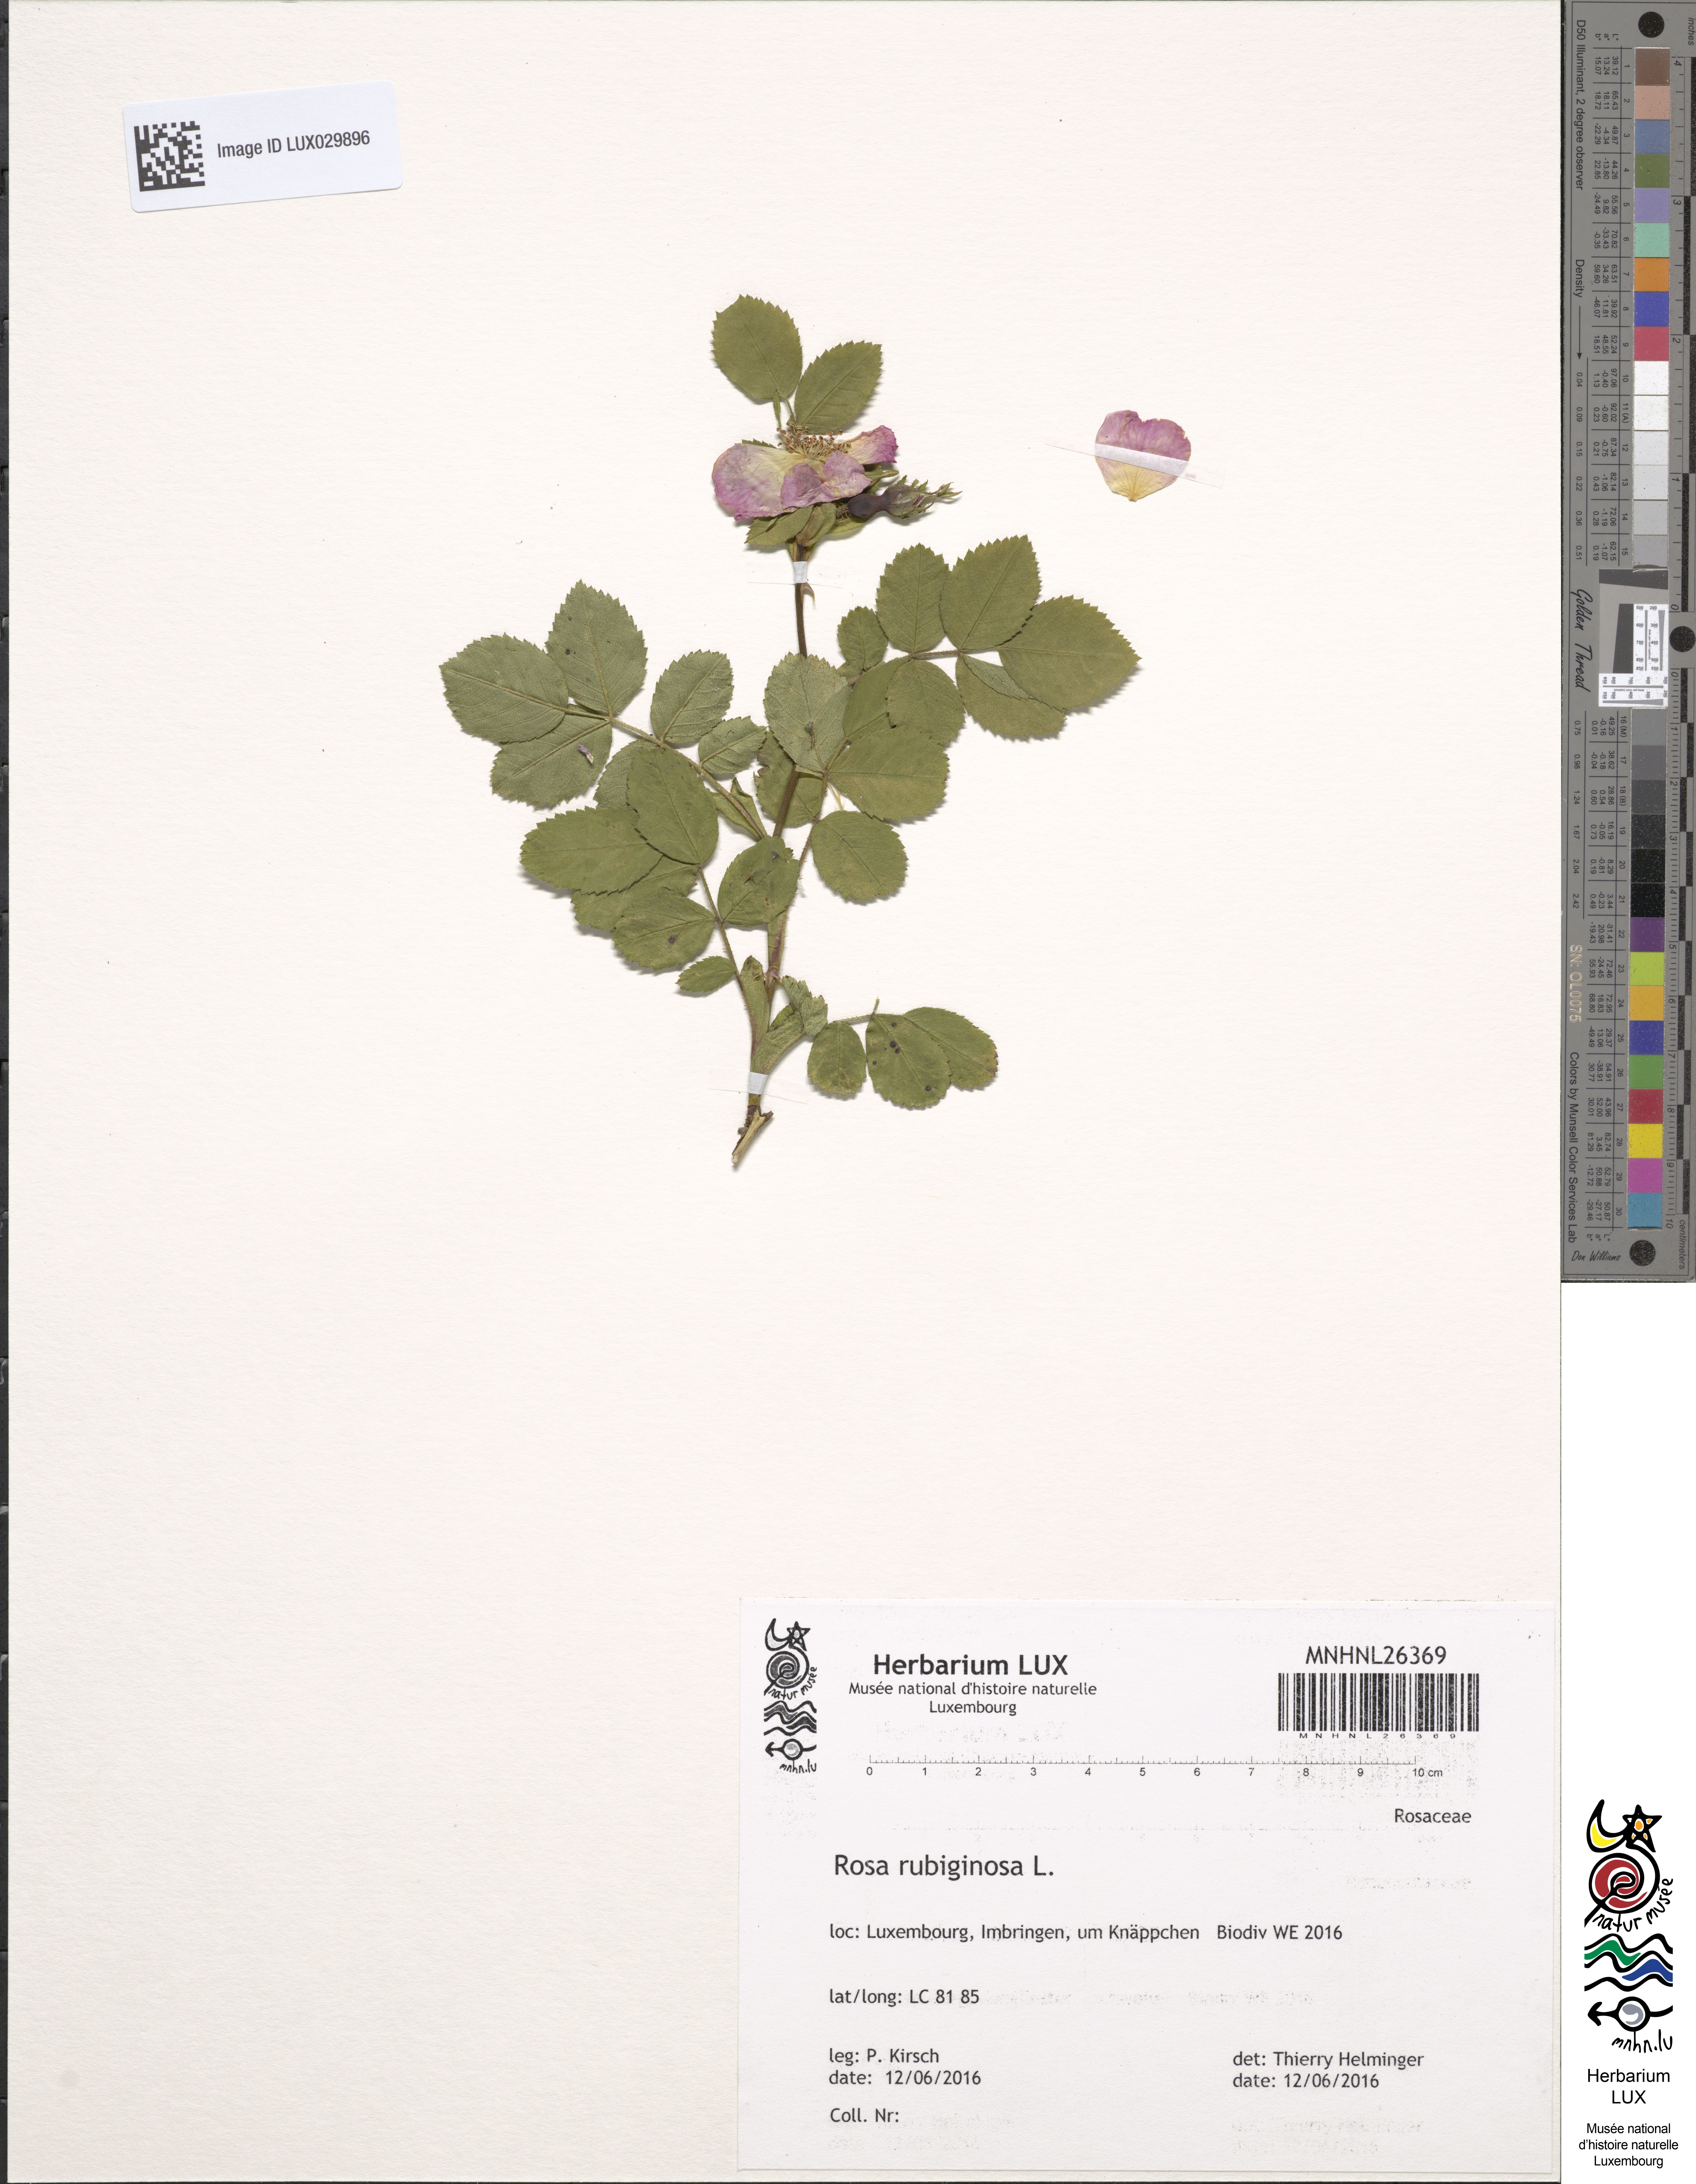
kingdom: Plantae
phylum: Tracheophyta
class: Magnoliopsida
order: Rosales
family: Rosaceae
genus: Rosa
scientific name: Rosa rubiginosa
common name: Sweet-briar
